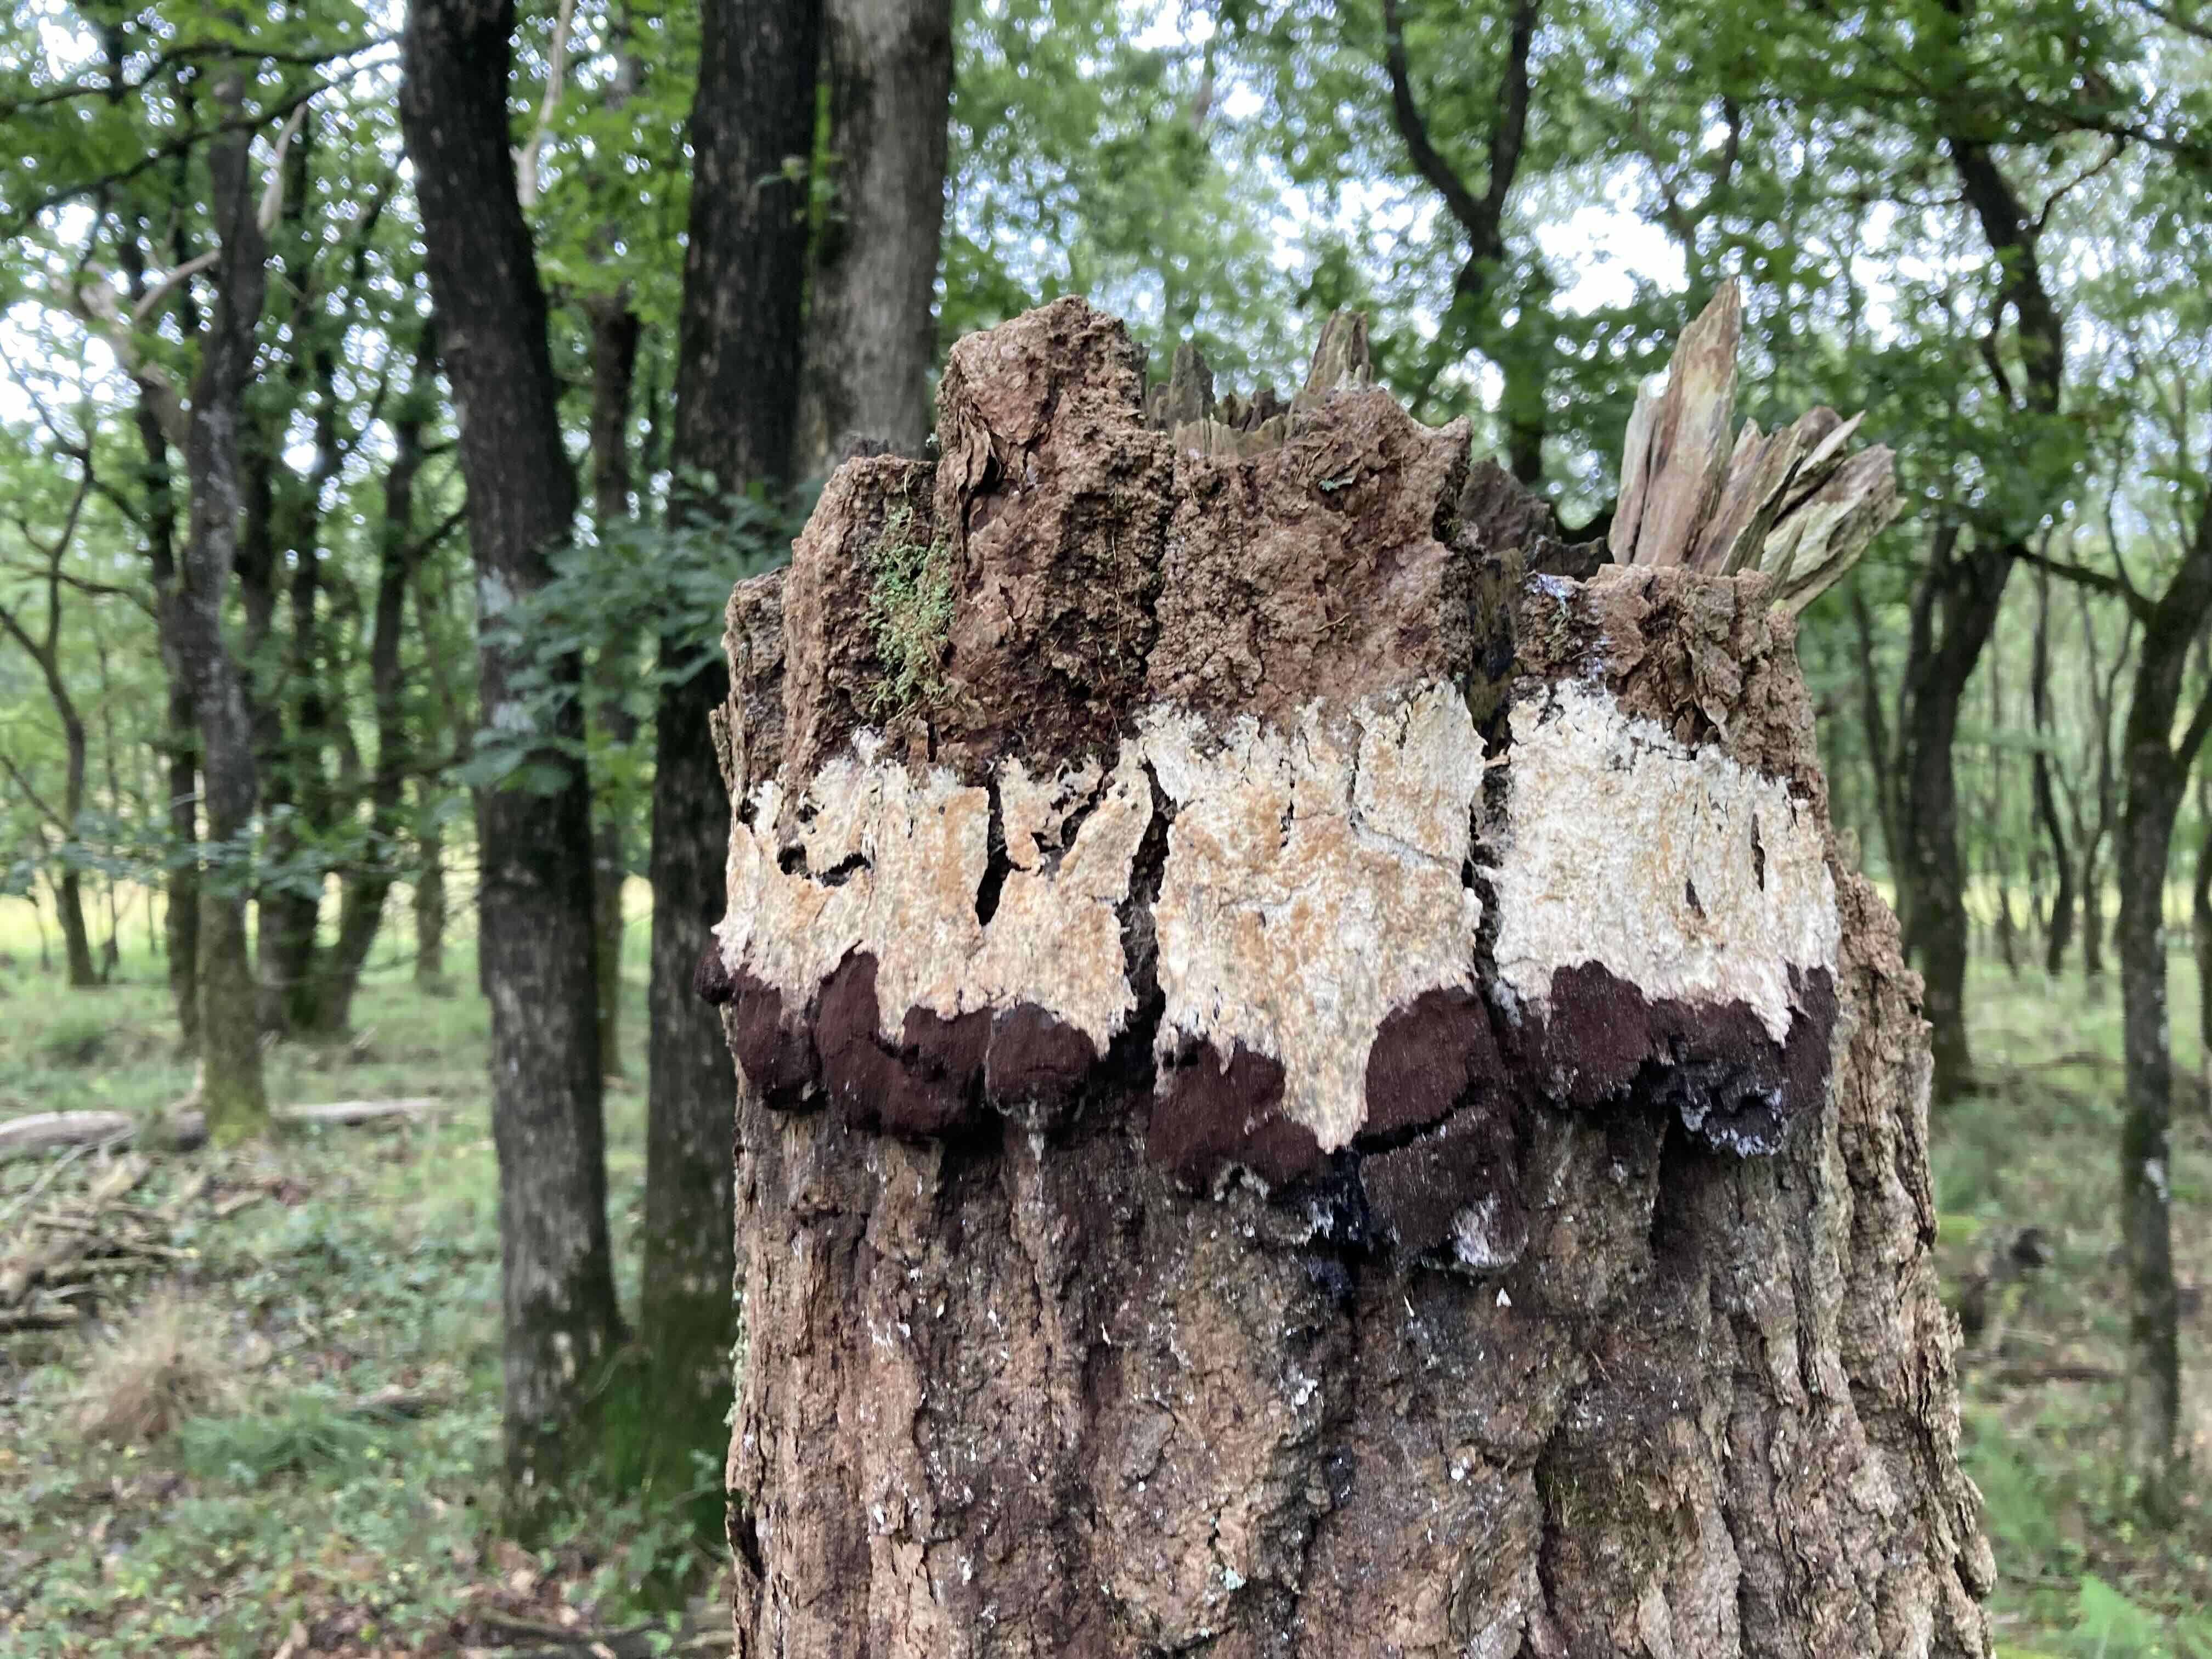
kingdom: Protozoa
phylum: Mycetozoa
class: Myxomycetes
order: Physarales
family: Physaraceae
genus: Fuligo
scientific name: Fuligo
